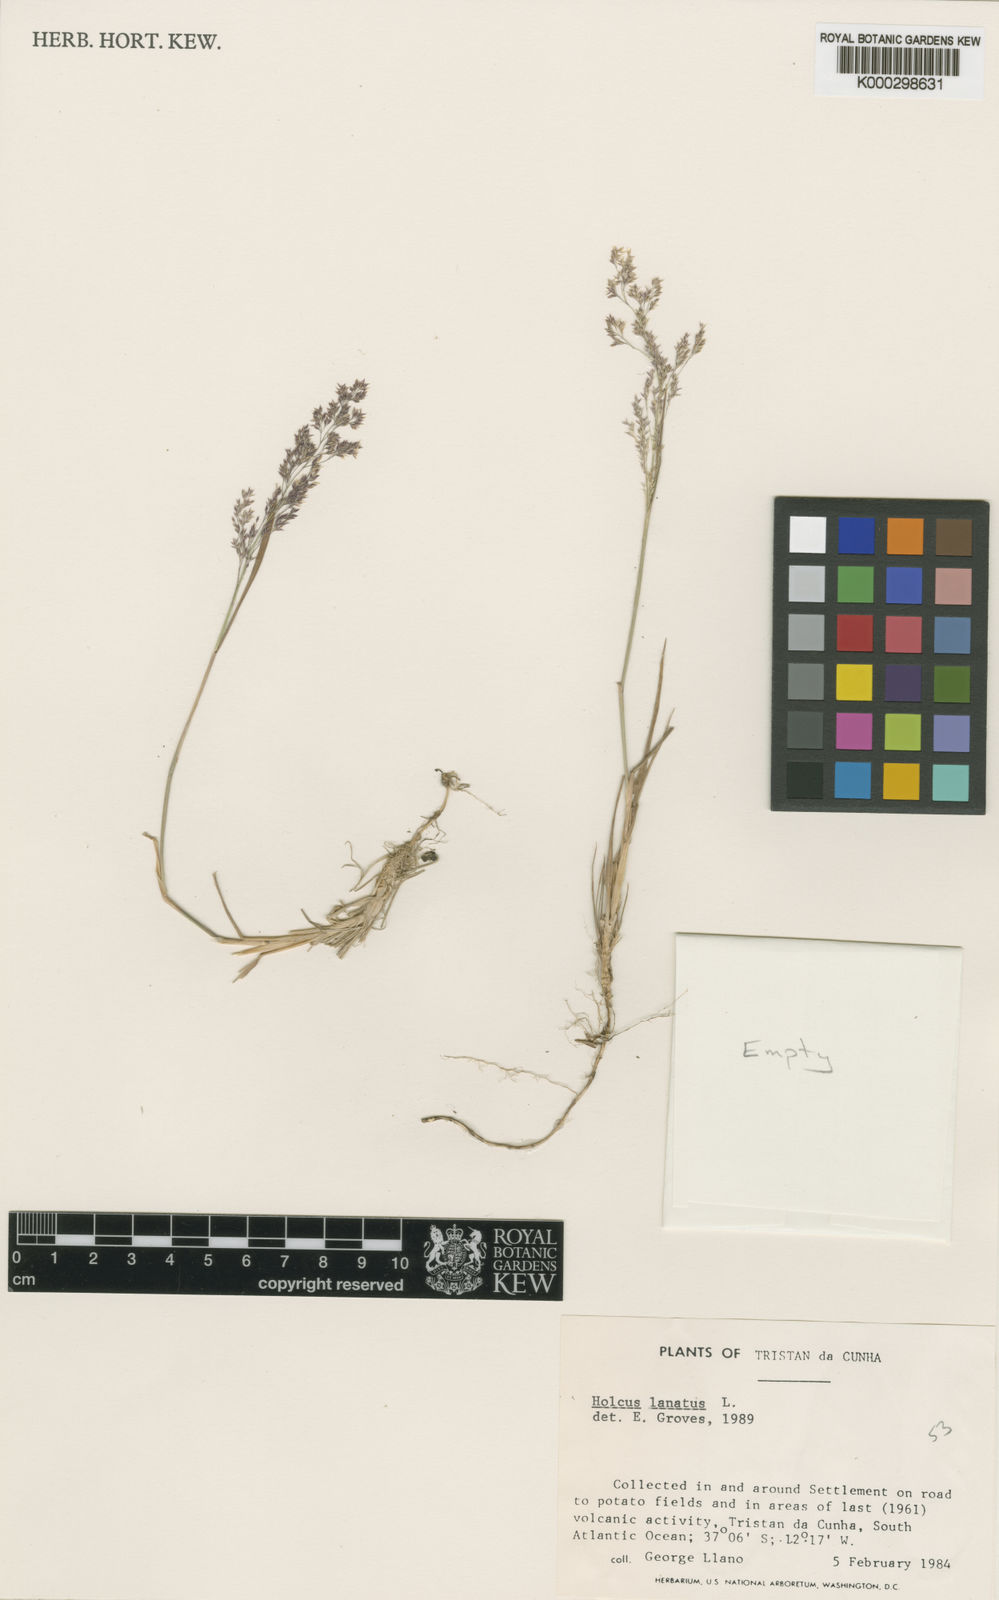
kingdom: Plantae
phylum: Tracheophyta
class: Liliopsida
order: Poales
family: Poaceae
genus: Holcus
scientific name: Holcus lanatus
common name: Yorkshire-fog
